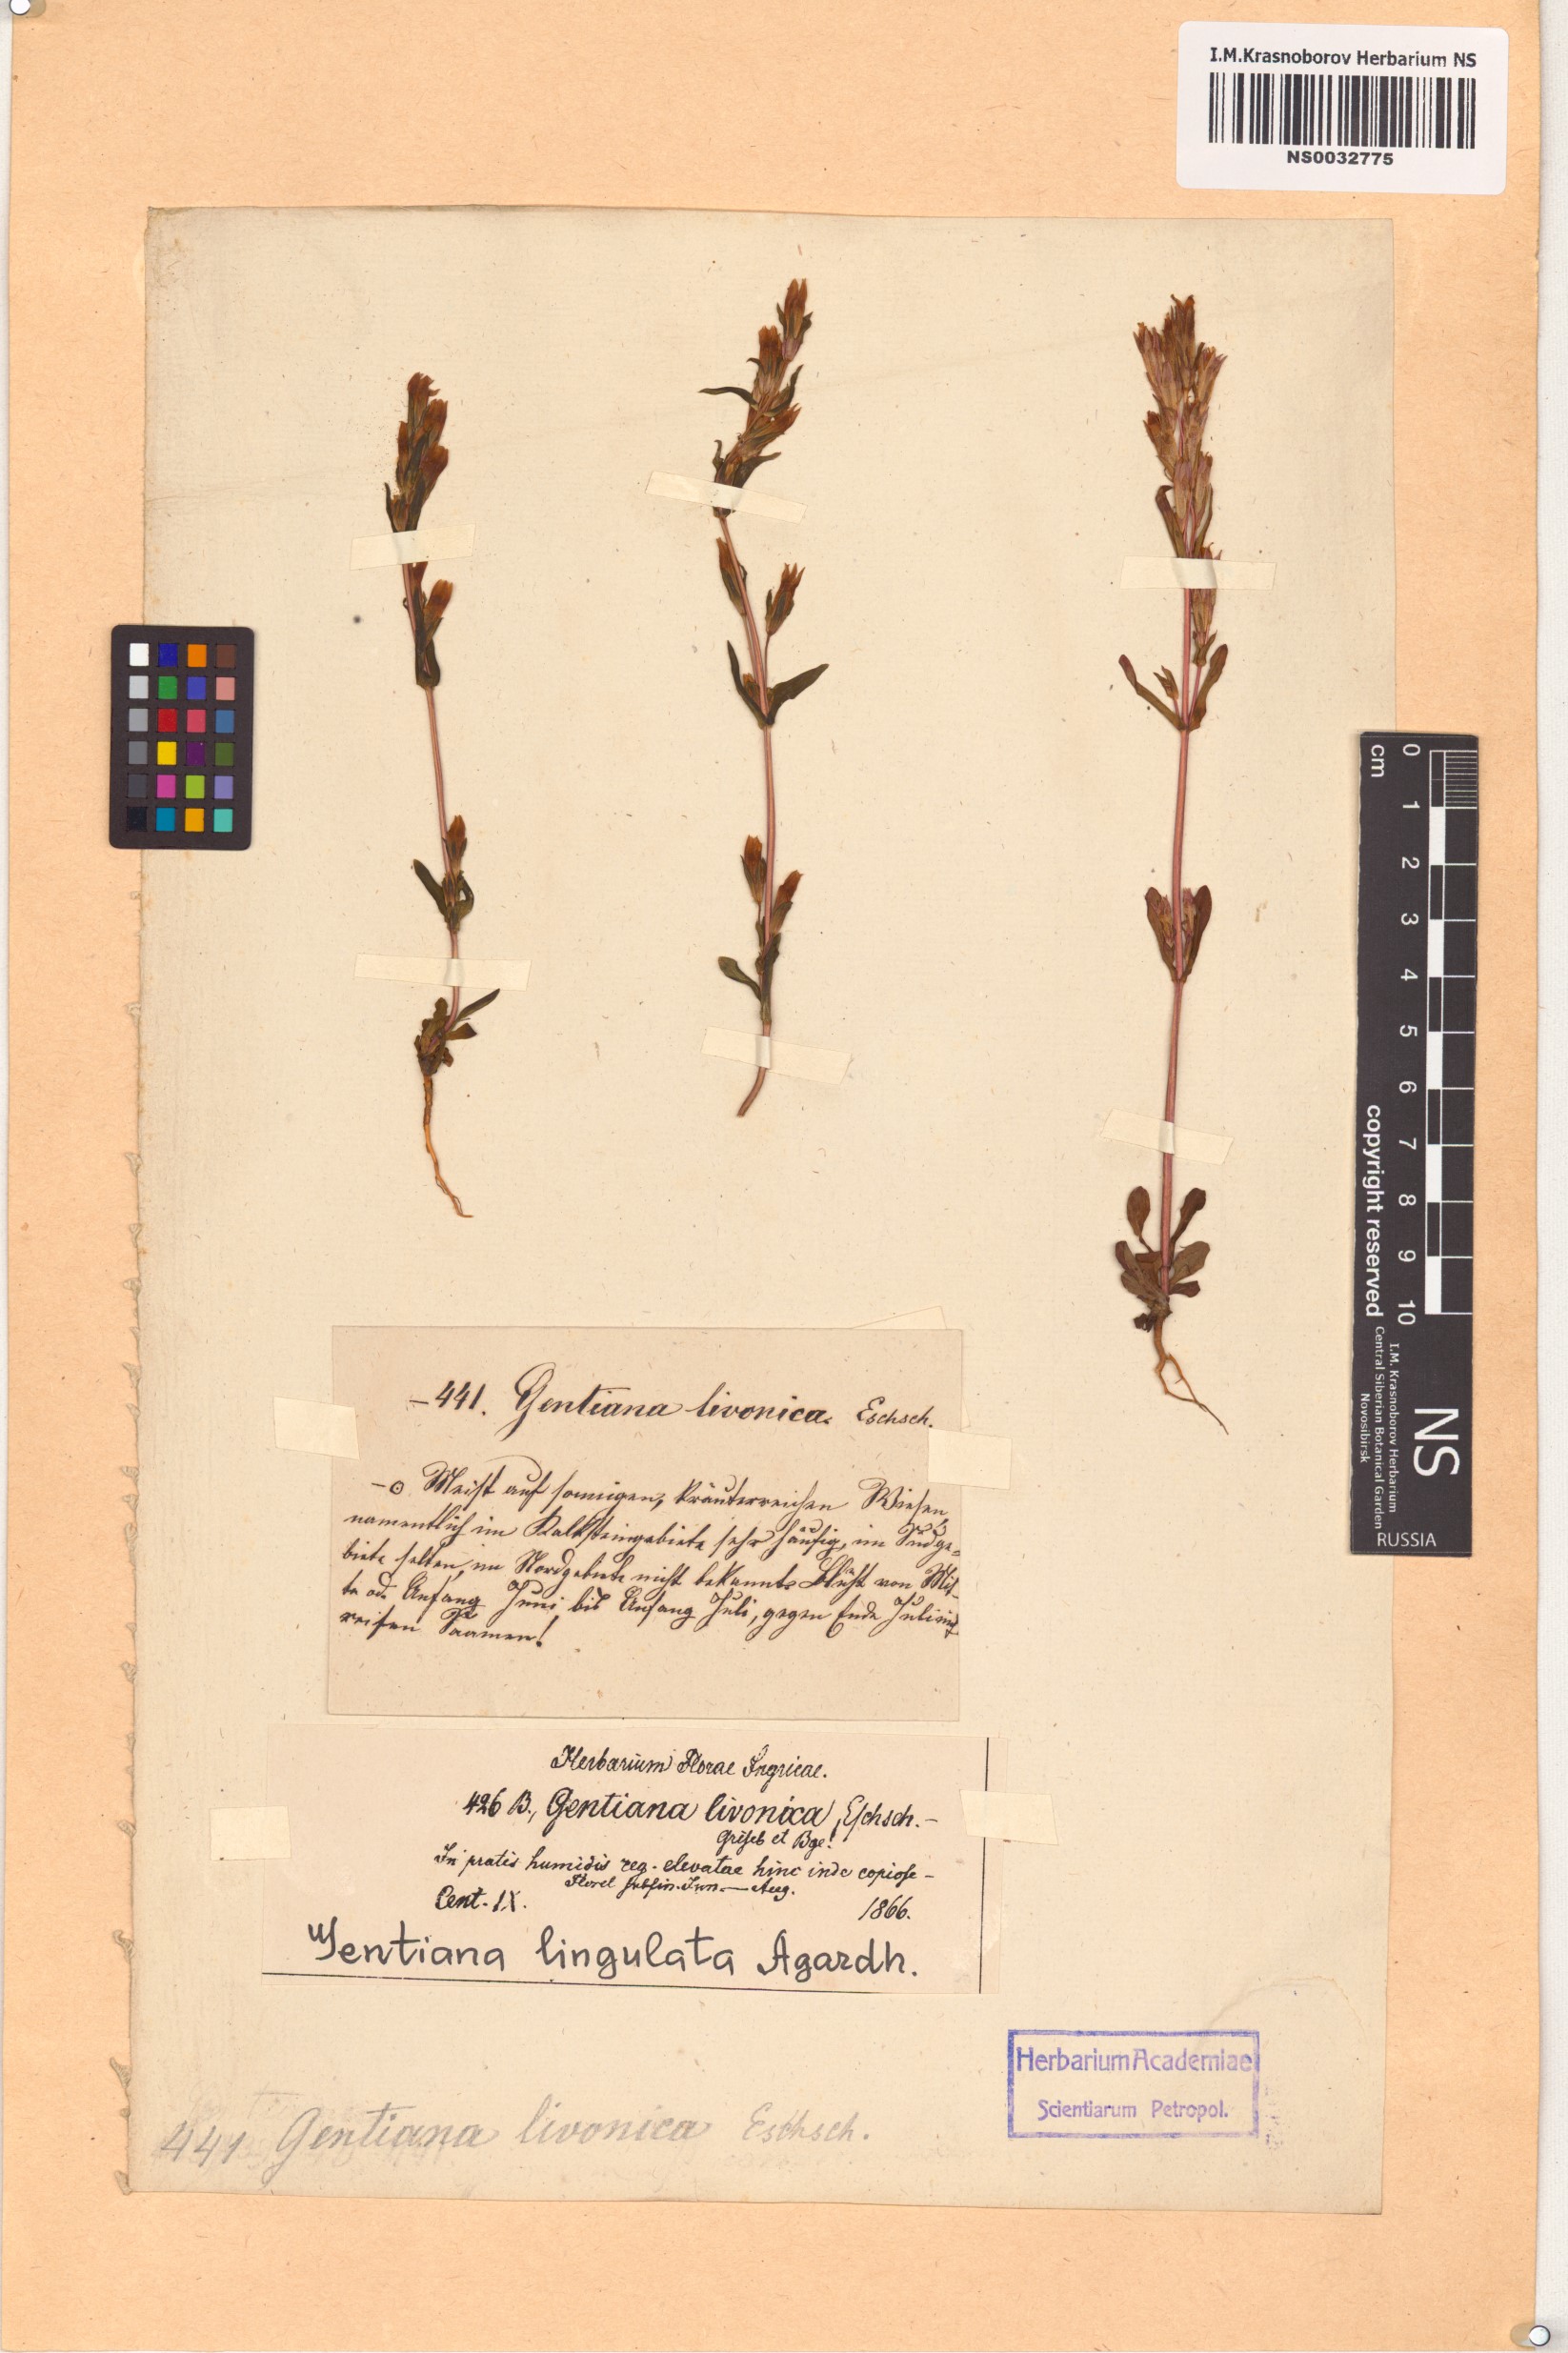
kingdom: Plantae
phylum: Tracheophyta
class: Magnoliopsida
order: Gentianales
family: Gentianaceae
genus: Gentianella
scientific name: Gentianella amarella
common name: Autumn gentian
